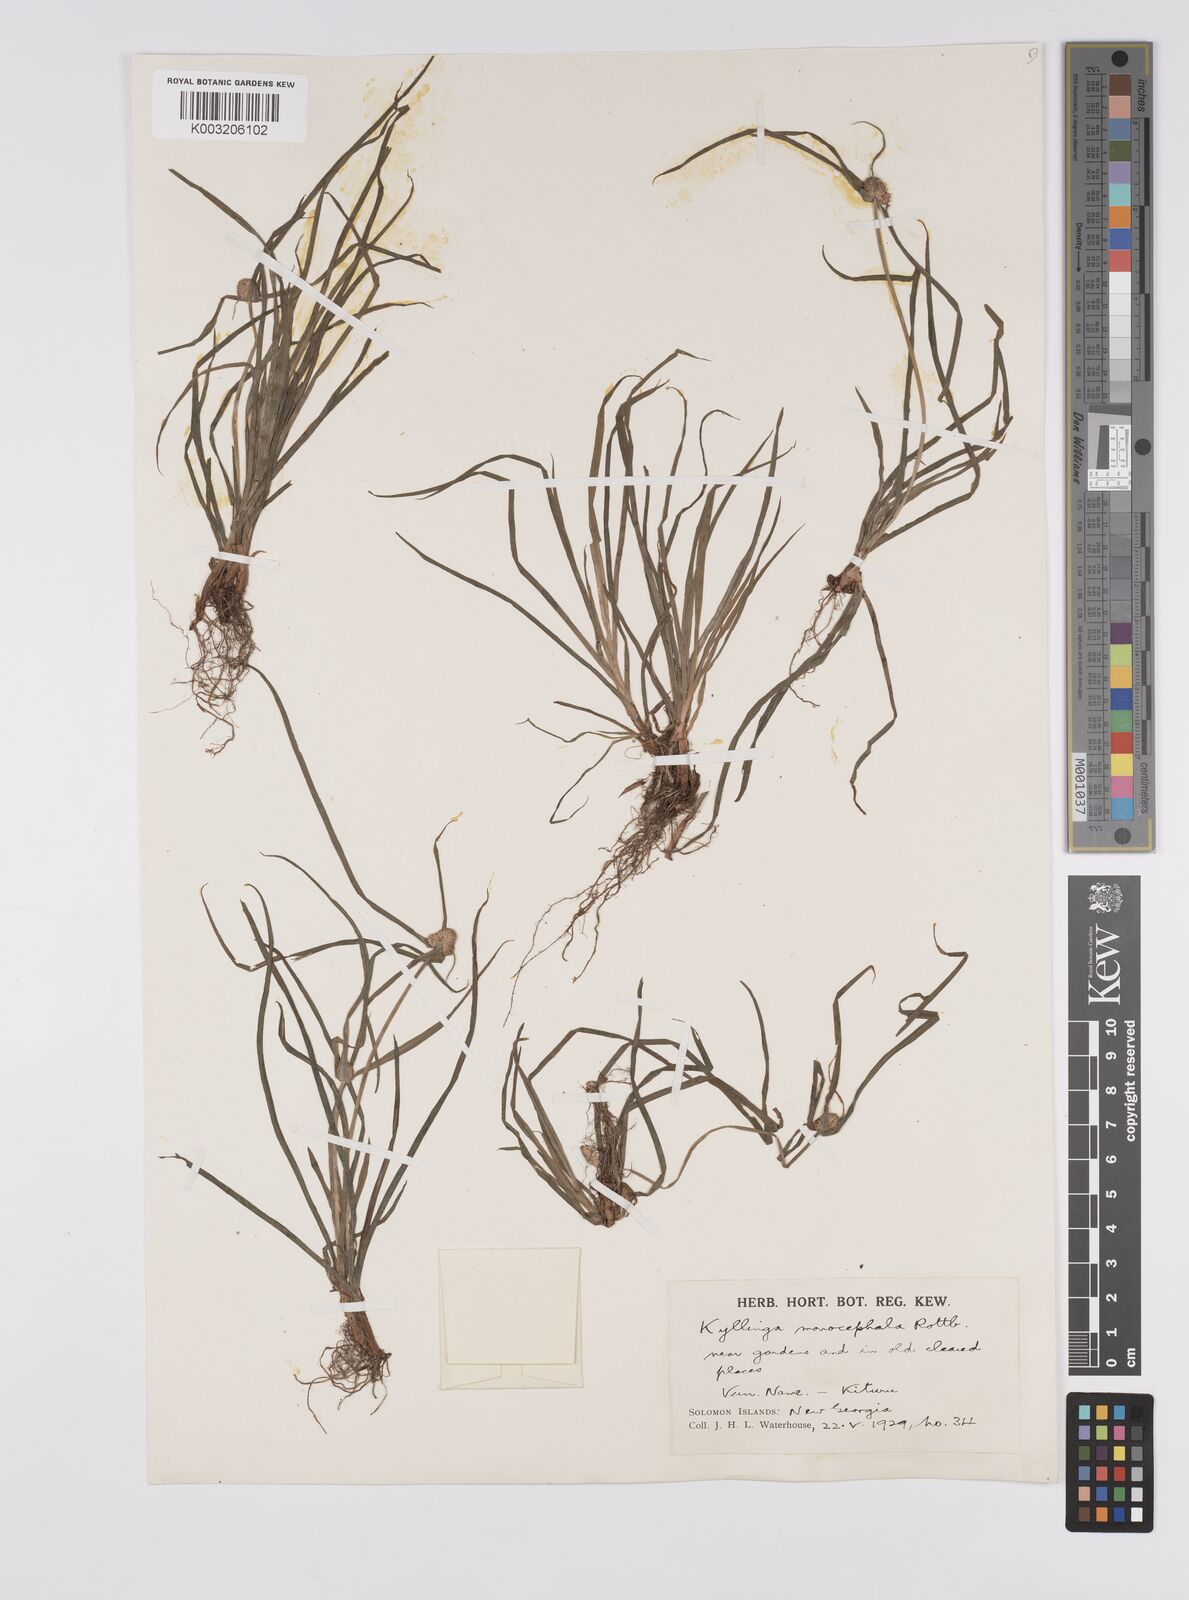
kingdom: Plantae
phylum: Tracheophyta
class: Liliopsida
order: Poales
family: Cyperaceae
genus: Cyperus
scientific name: Cyperus nemoralis
